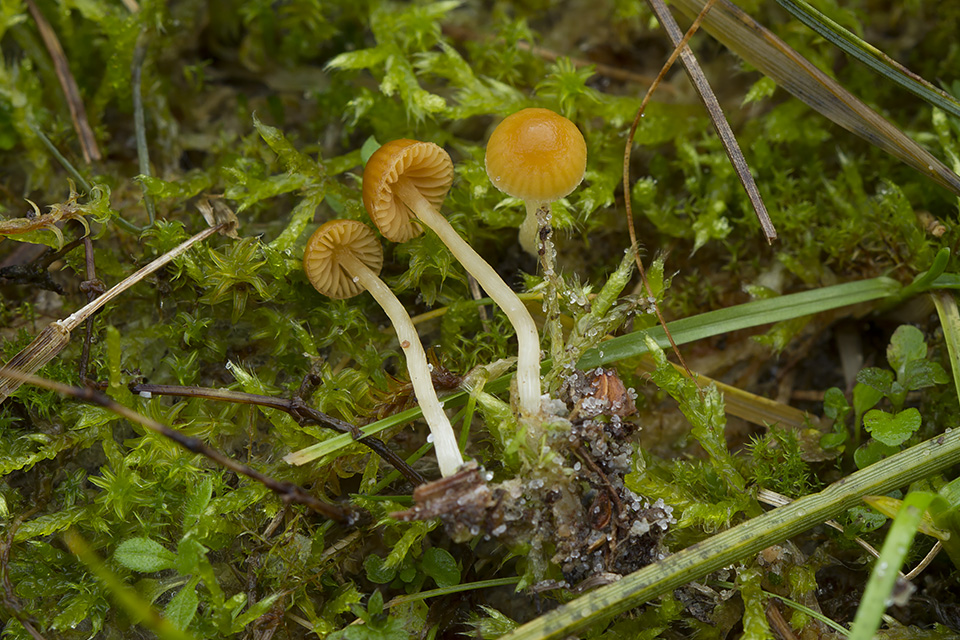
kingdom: Fungi
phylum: Basidiomycota
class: Agaricomycetes
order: Agaricales
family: Hymenogastraceae
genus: Galerina
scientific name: Galerina graminea
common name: plæne-hjelmhat
